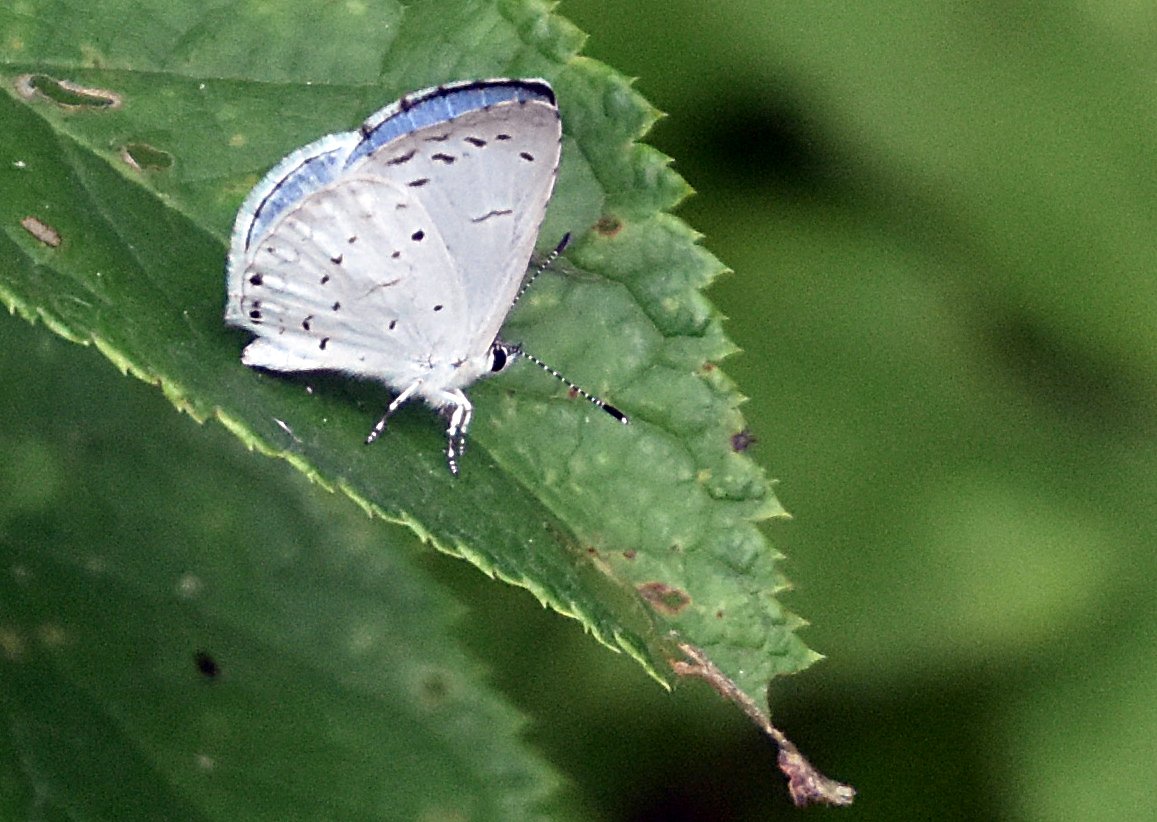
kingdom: Animalia
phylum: Arthropoda
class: Insecta
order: Lepidoptera
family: Lycaenidae
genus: Elkalyce
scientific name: Elkalyce comyntas
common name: Eastern Tailed-Blue
